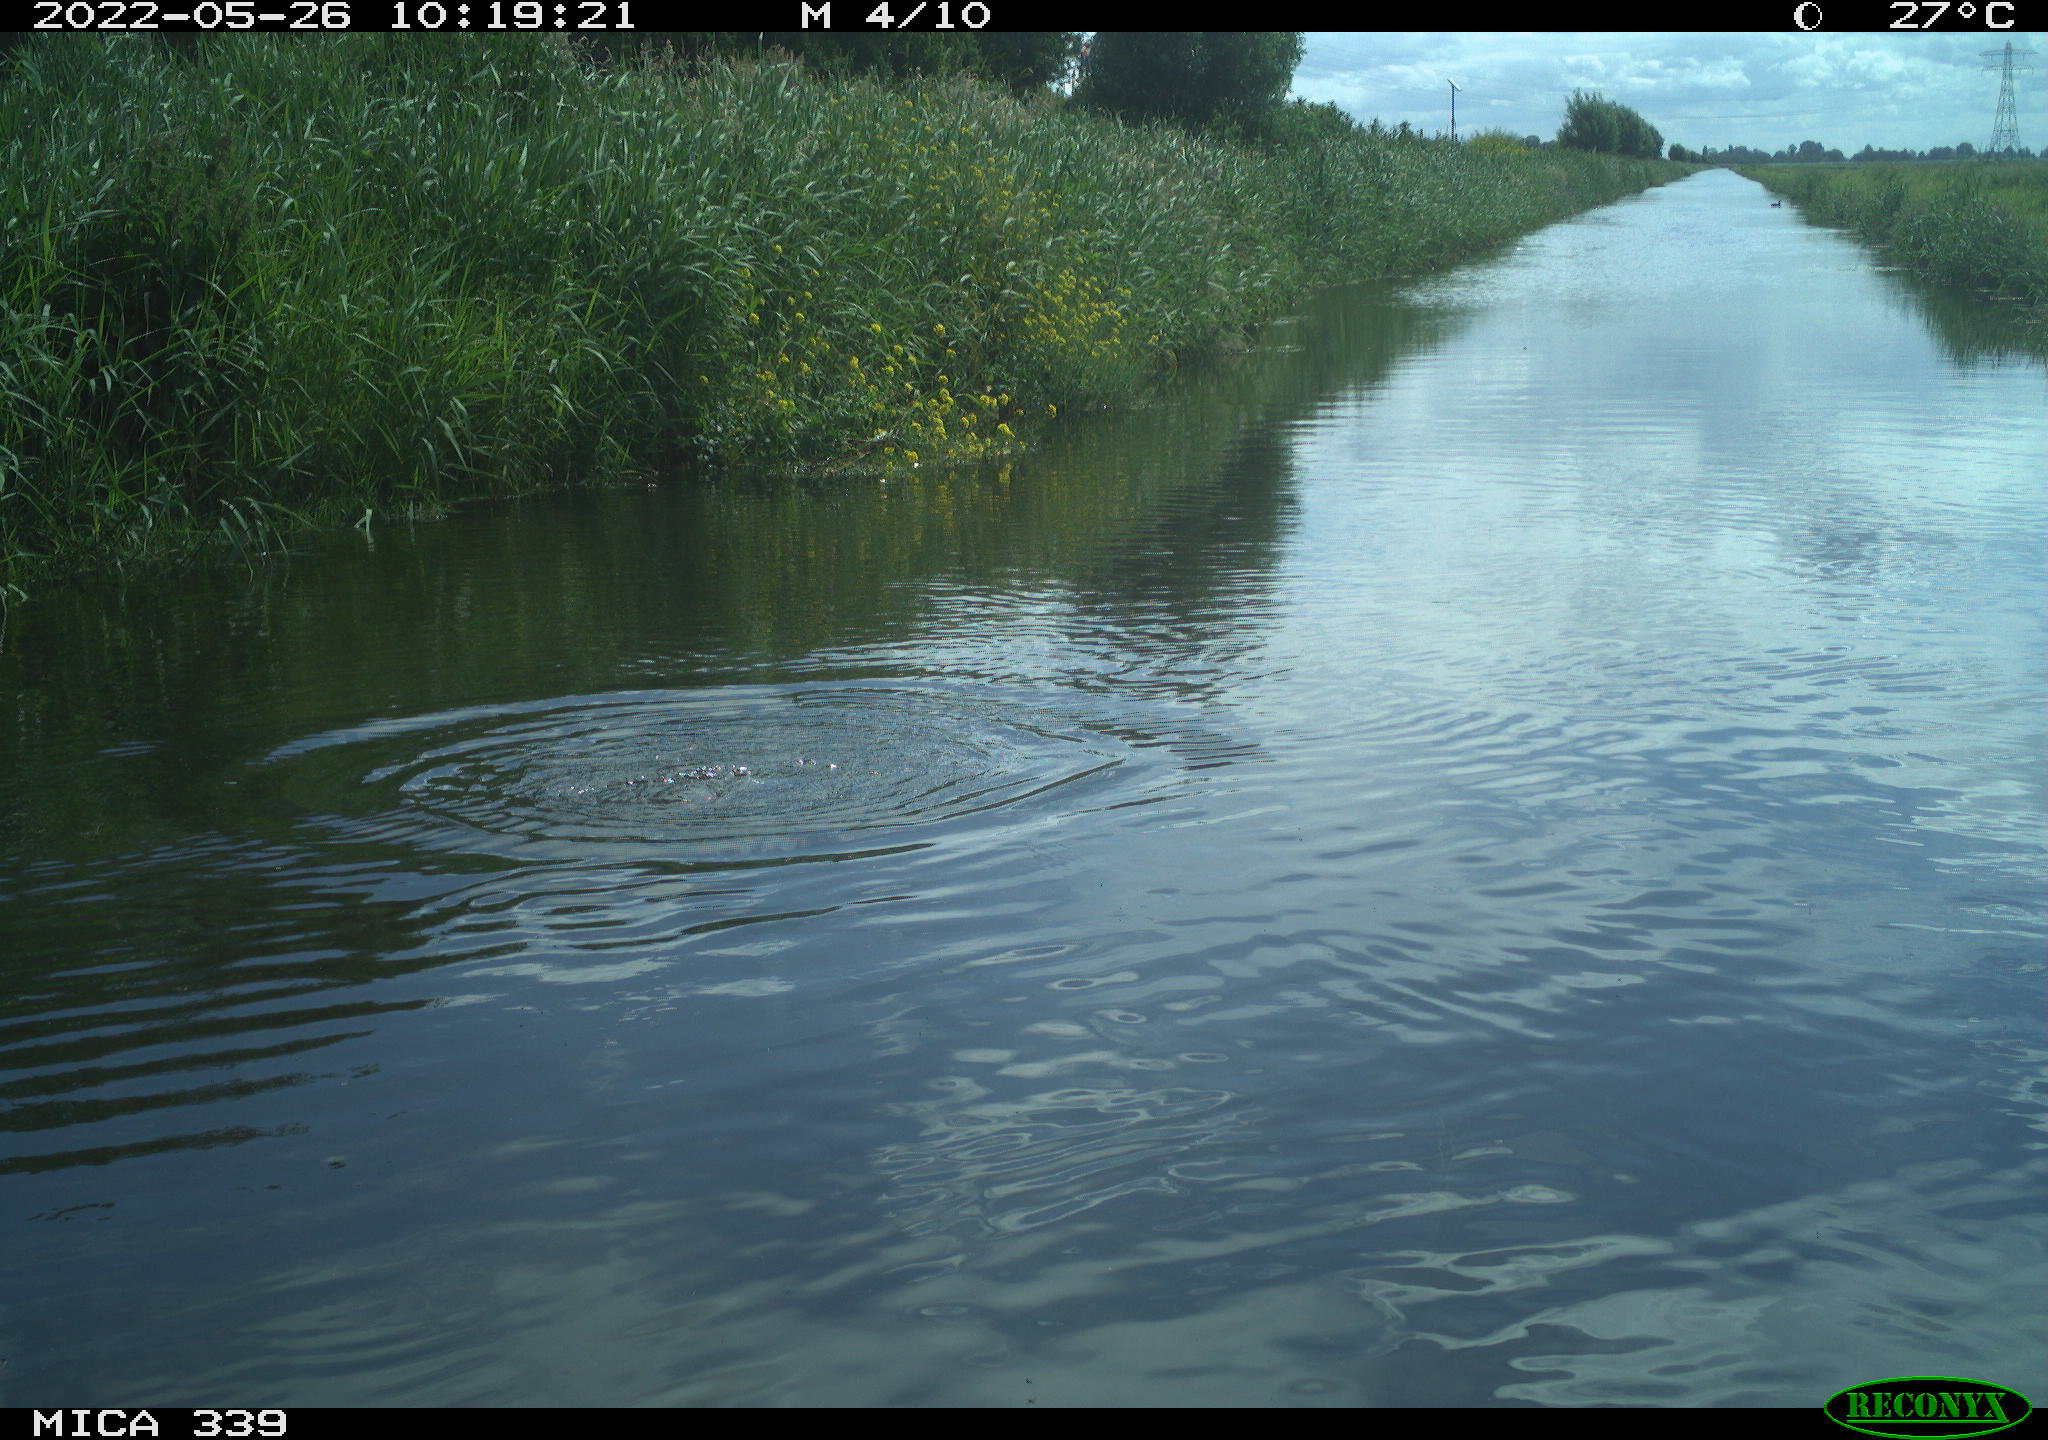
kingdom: Animalia
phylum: Chordata
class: Aves
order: Gruiformes
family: Rallidae
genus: Fulica
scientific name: Fulica atra
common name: Eurasian coot
